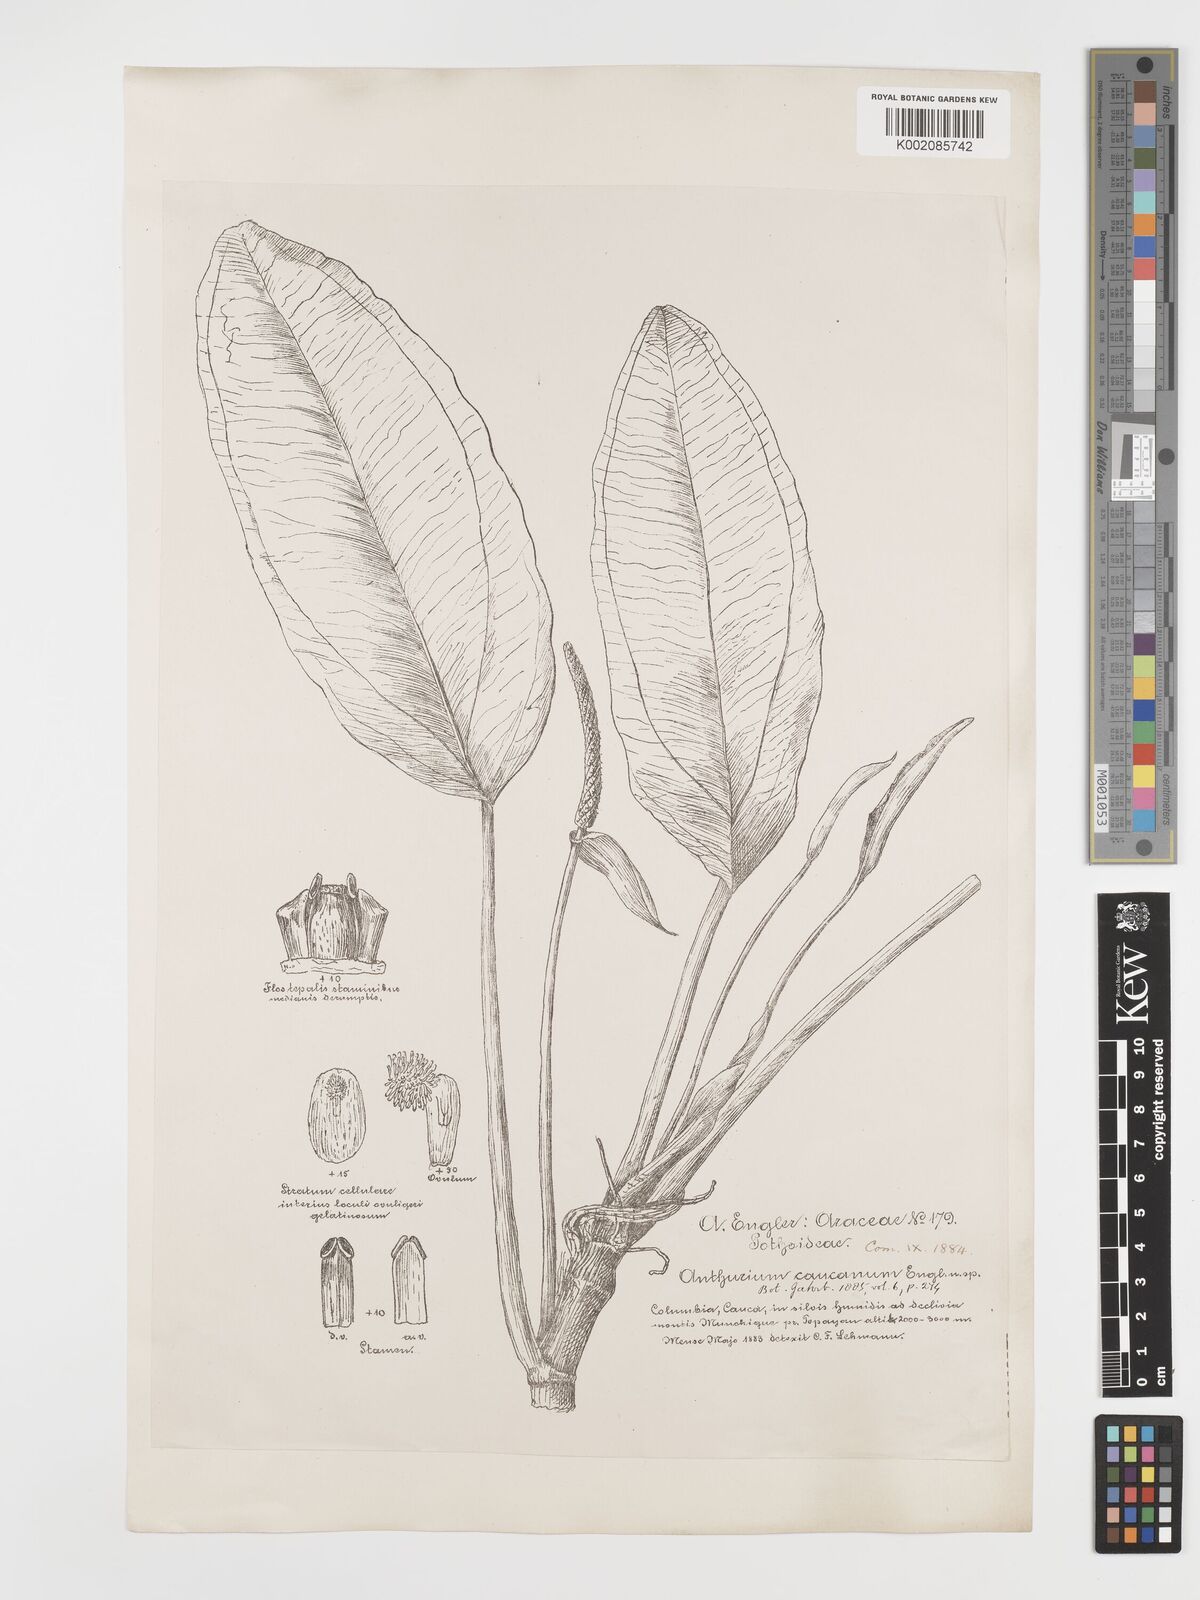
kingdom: Plantae
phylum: Tracheophyta
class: Liliopsida
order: Alismatales
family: Araceae
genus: Anthurium
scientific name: Anthurium caucanum
